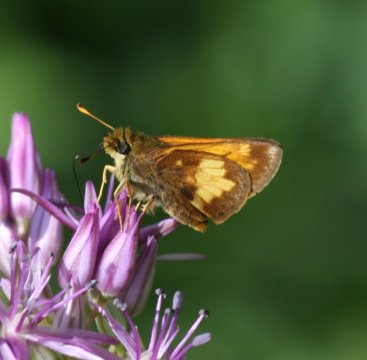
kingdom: Animalia
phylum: Arthropoda
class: Insecta
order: Lepidoptera
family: Hesperiidae
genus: Lon
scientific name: Lon hobomok
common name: Hobomok Skipper
